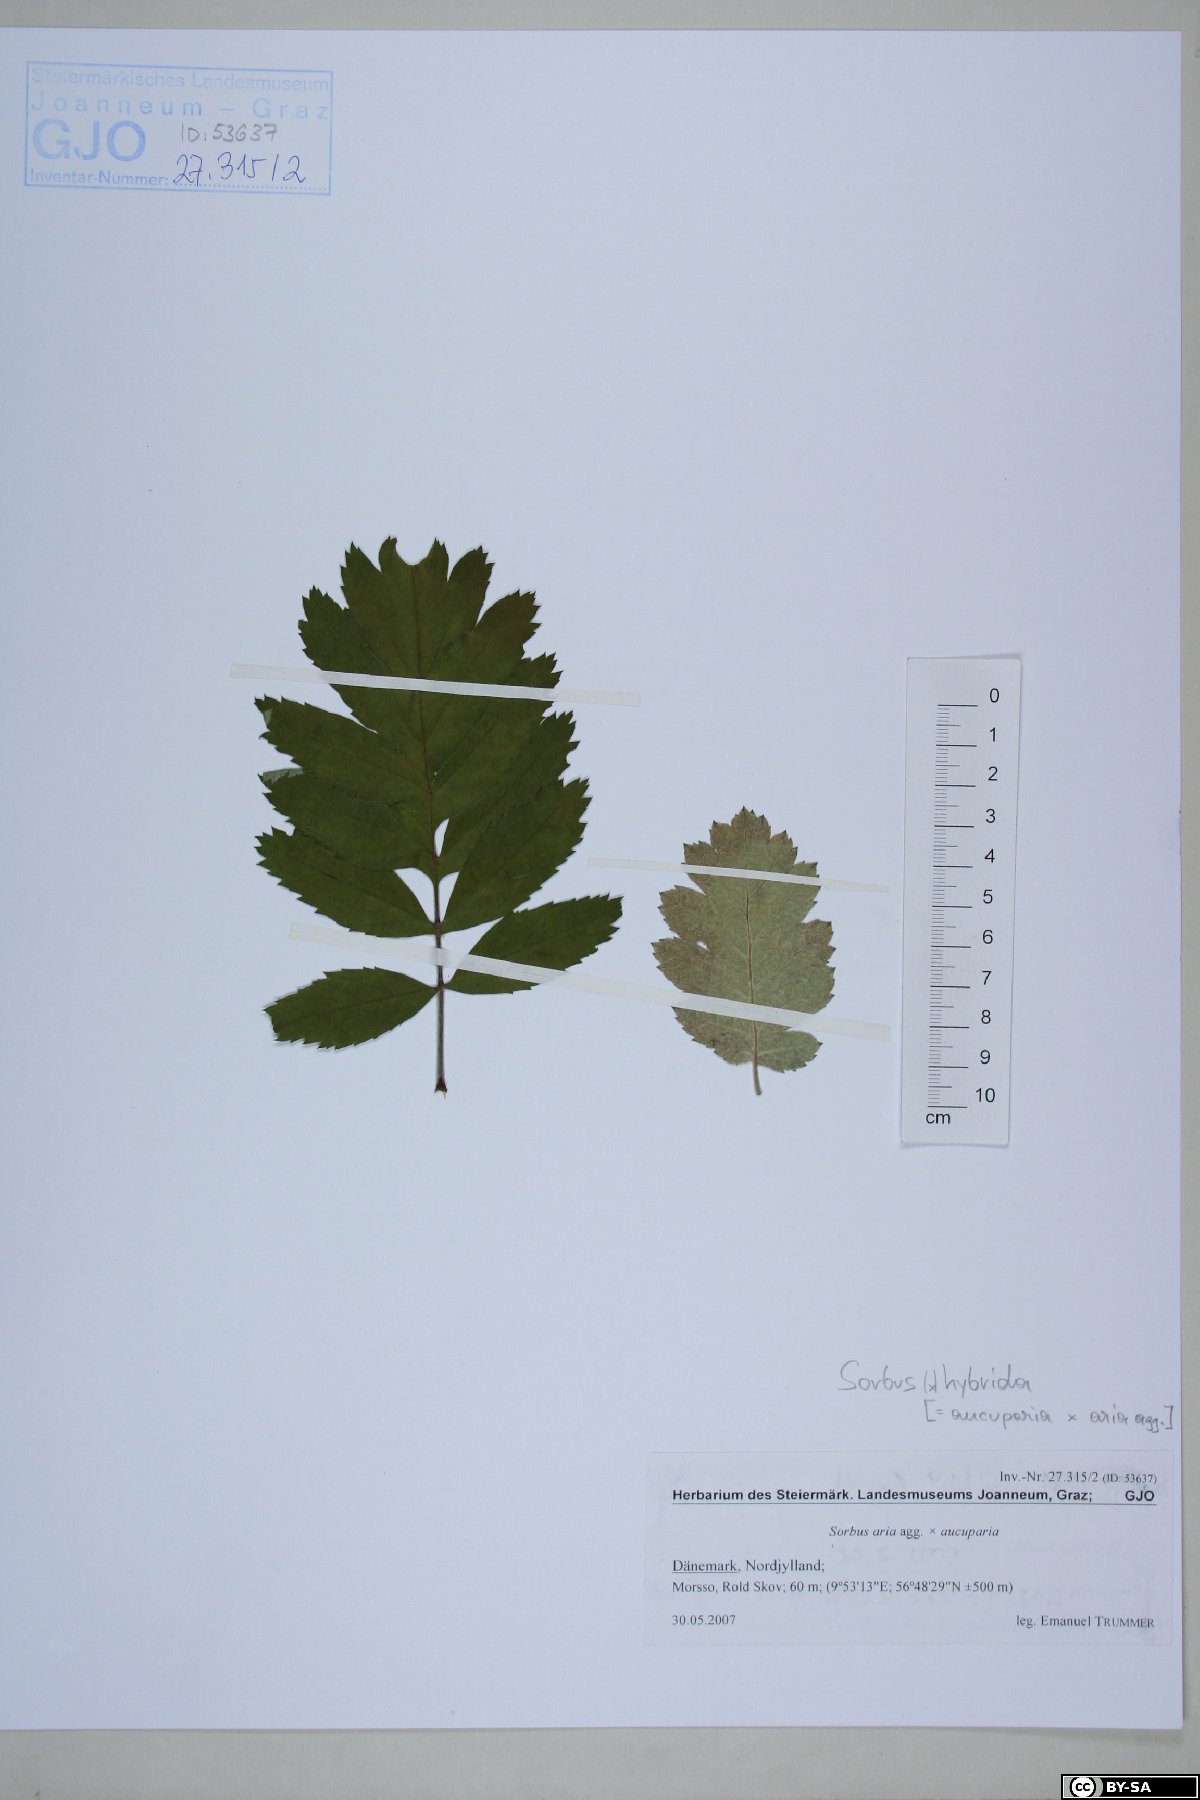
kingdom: Plantae
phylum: Tracheophyta
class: Magnoliopsida
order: Rosales
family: Rosaceae
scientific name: Rosaceae
